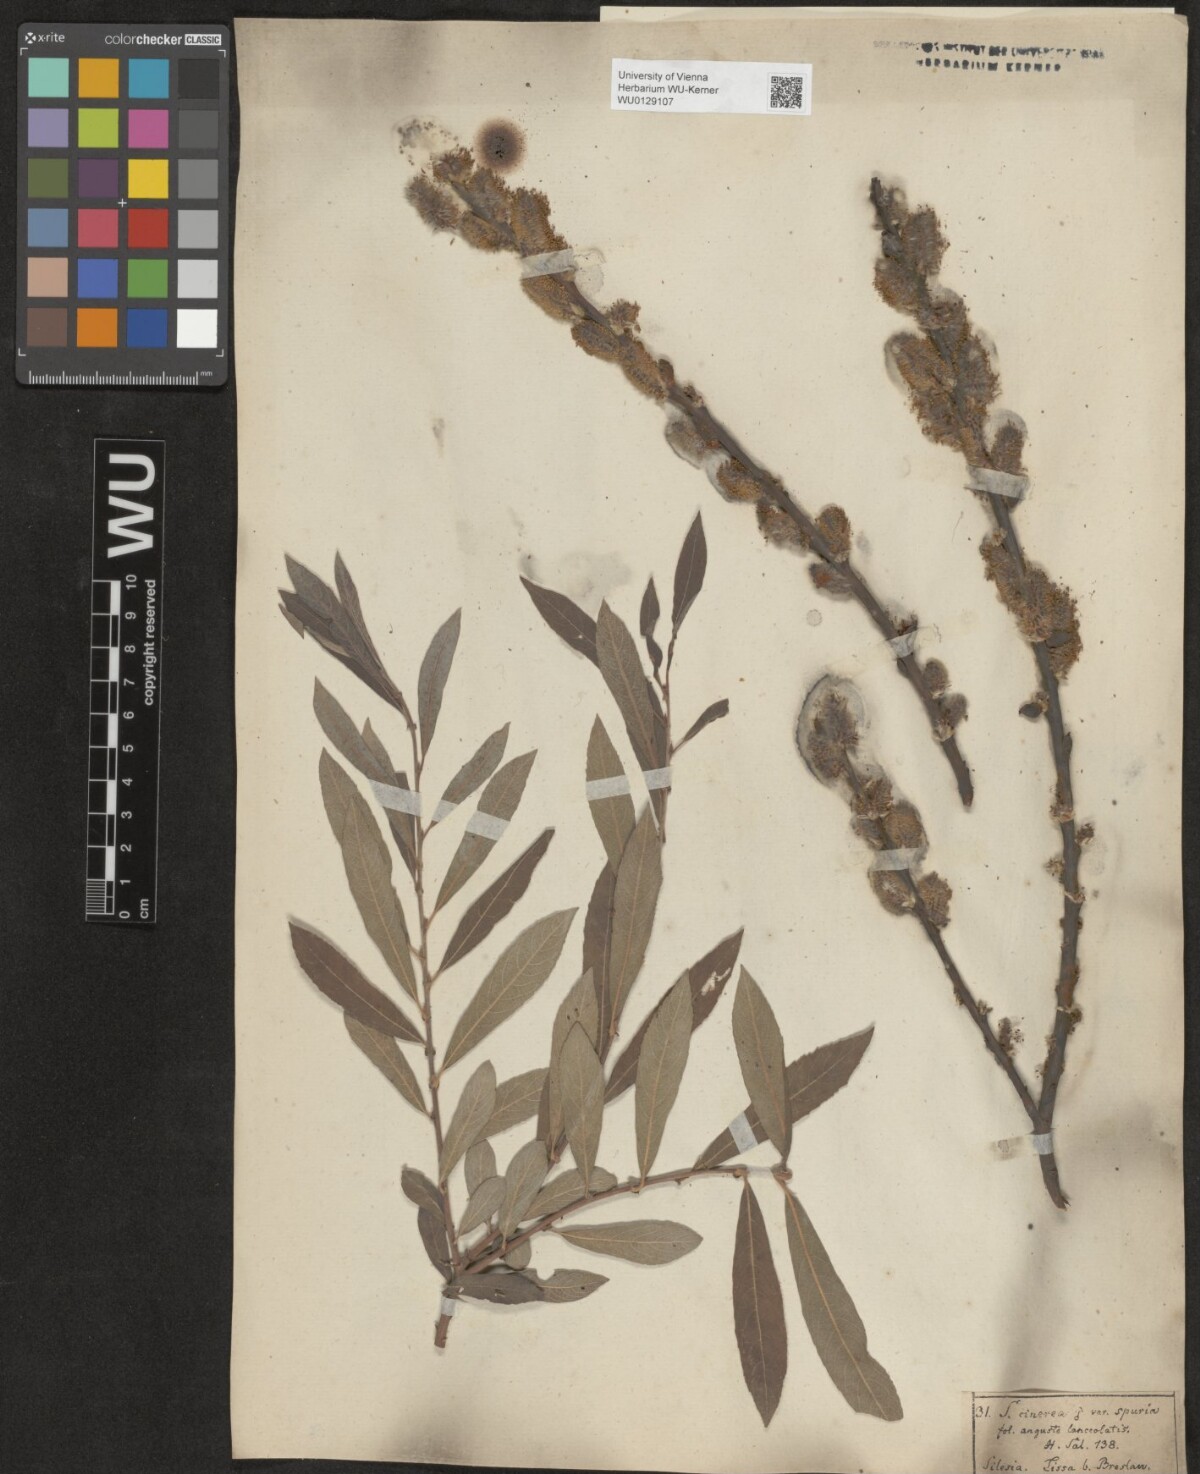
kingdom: Plantae
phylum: Tracheophyta
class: Magnoliopsida
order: Malpighiales
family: Salicaceae
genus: Salix
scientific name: Salix cinerea
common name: Common sallow
